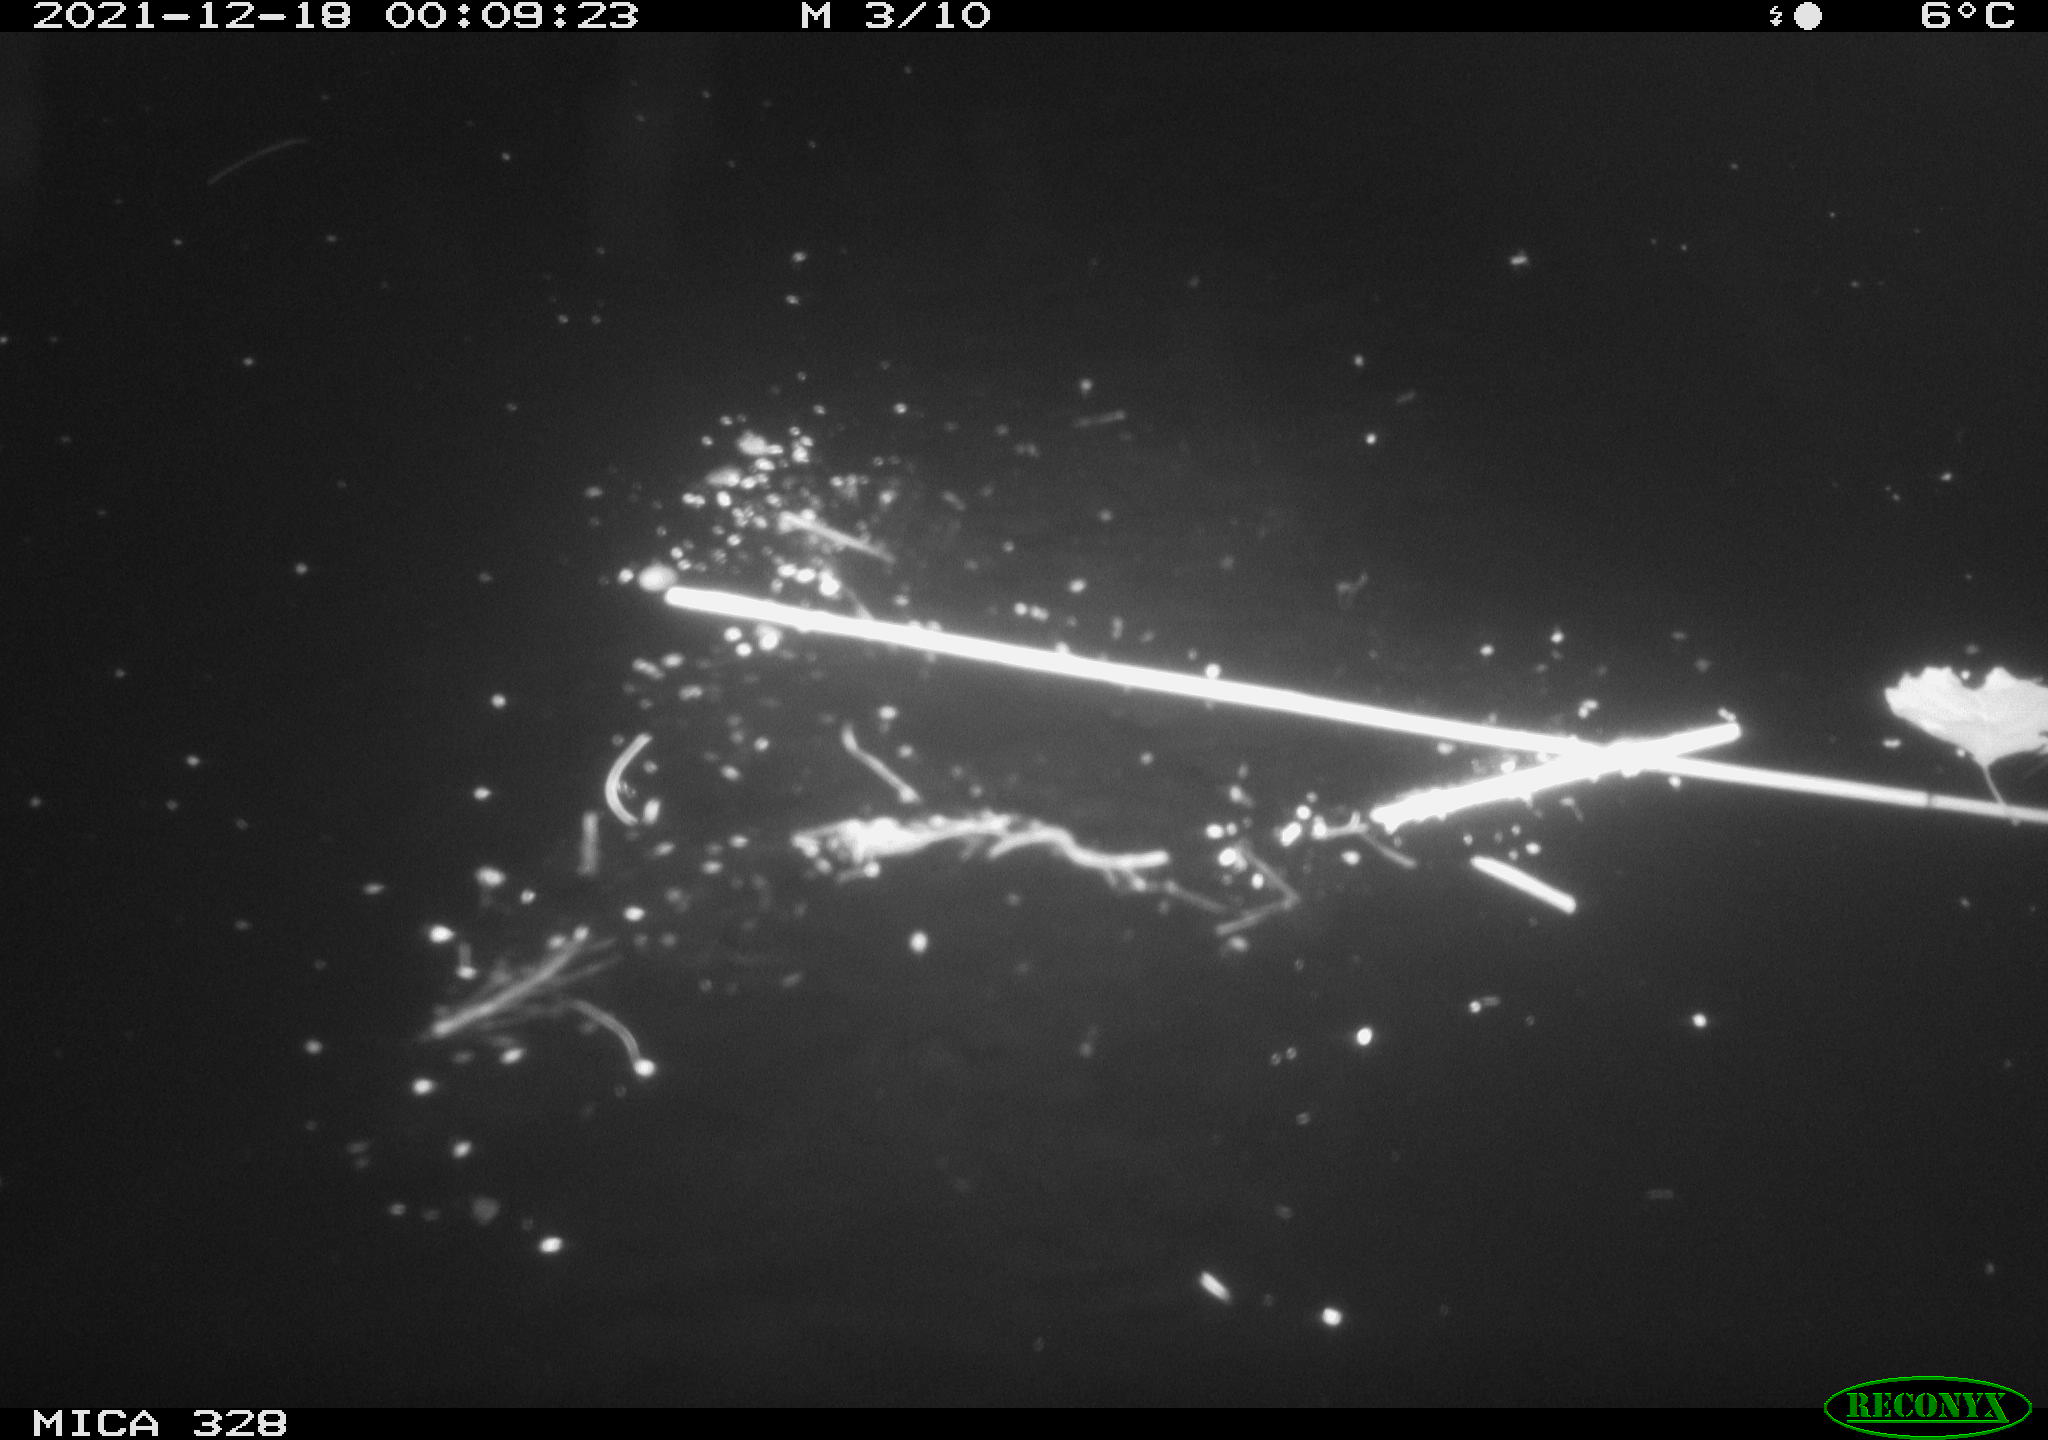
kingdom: Animalia
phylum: Chordata
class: Mammalia
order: Rodentia
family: Cricetidae
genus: Ondatra
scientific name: Ondatra zibethicus
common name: Muskrat
